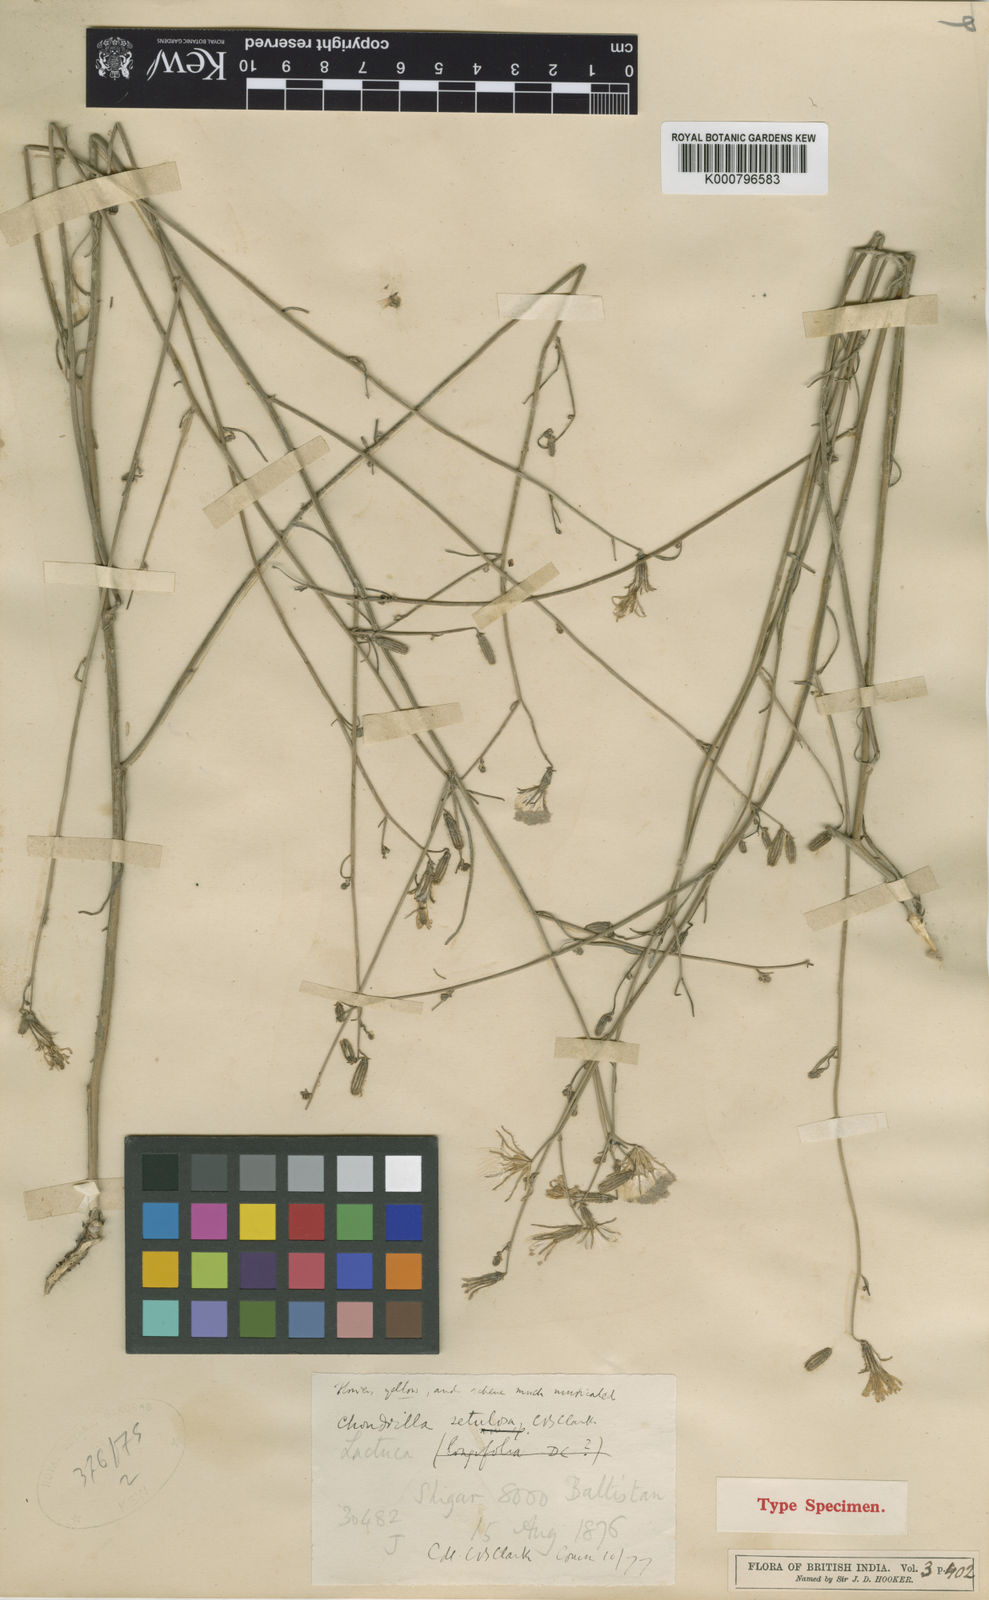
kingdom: Plantae
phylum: Tracheophyta
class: Magnoliopsida
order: Asterales
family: Asteraceae
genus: Chondrilla
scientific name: Chondrilla maracandica
